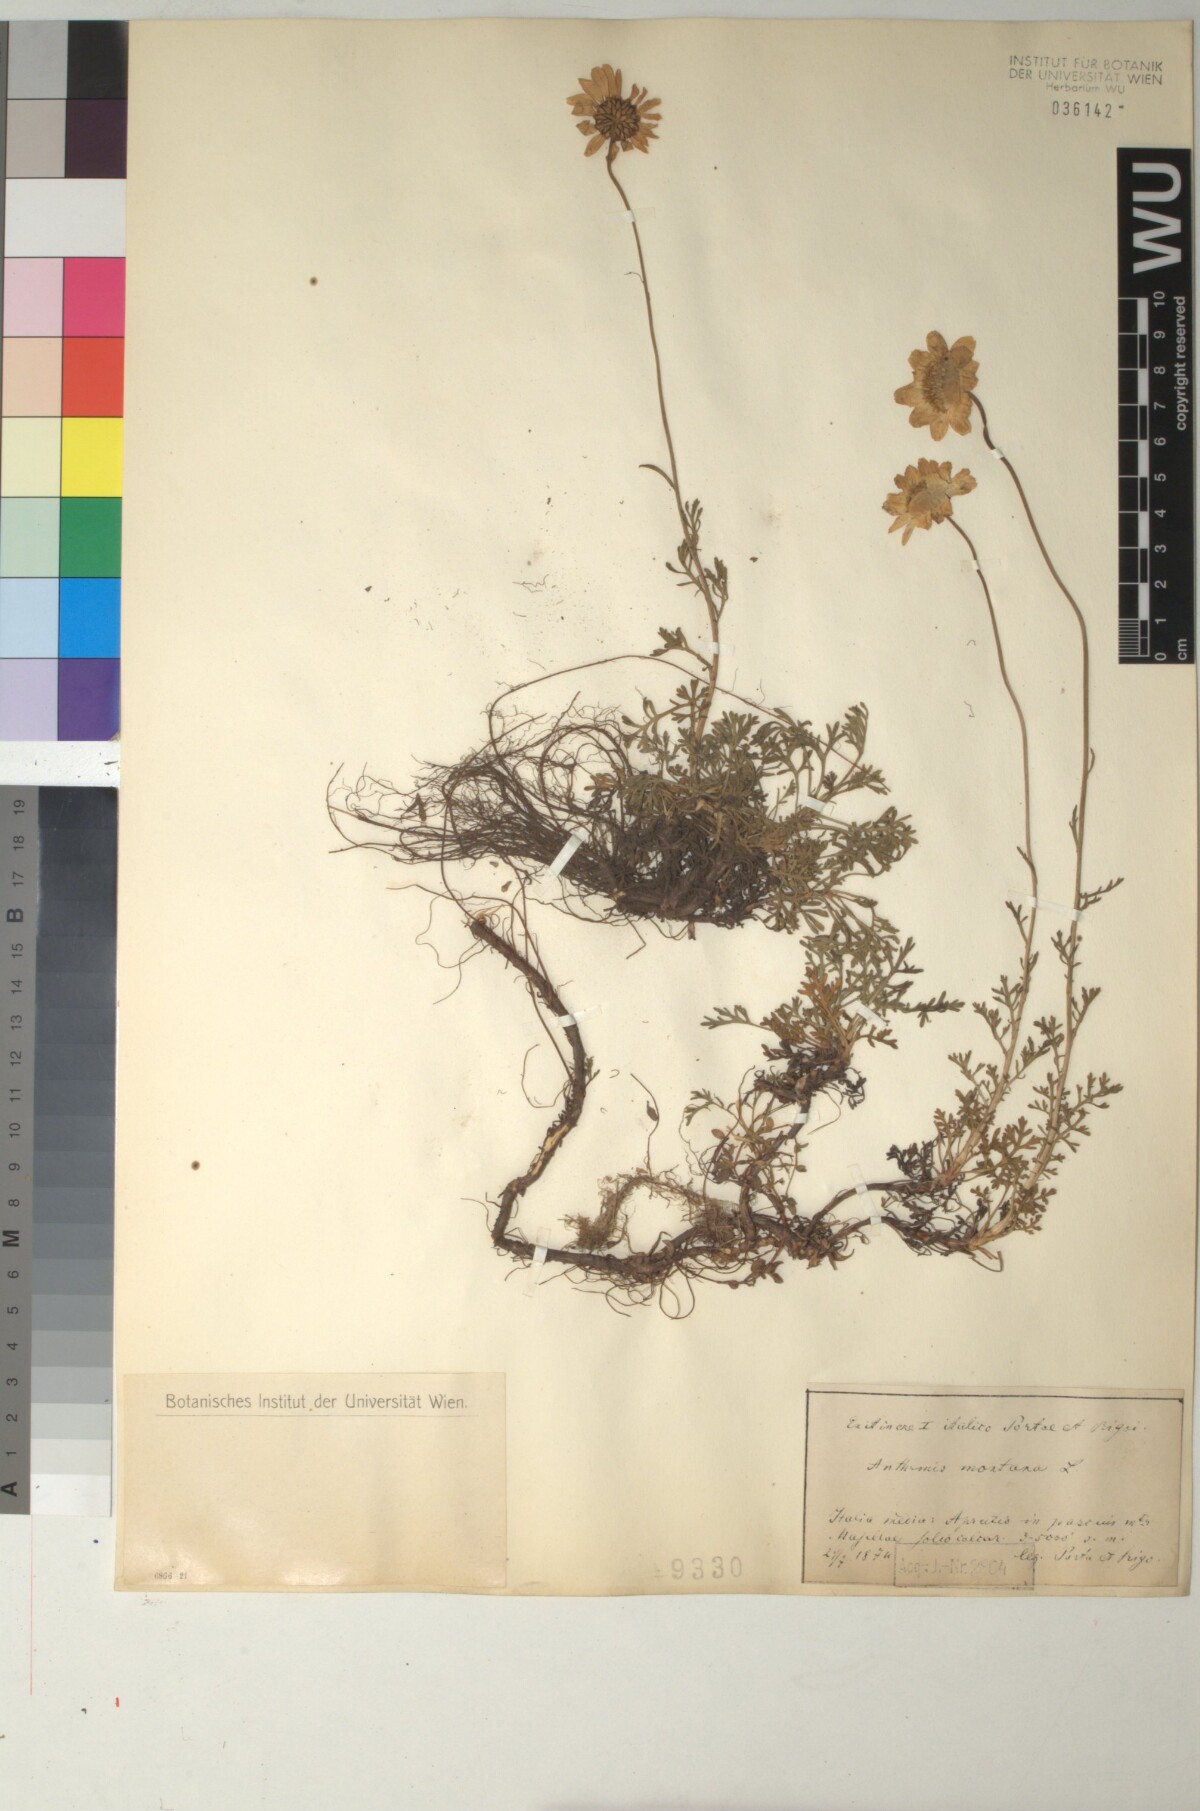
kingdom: Plantae
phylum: Tracheophyta
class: Magnoliopsida
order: Asterales
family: Asteraceae
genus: Anthemis
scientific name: Anthemis cretica
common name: Mountain dog-daisy
